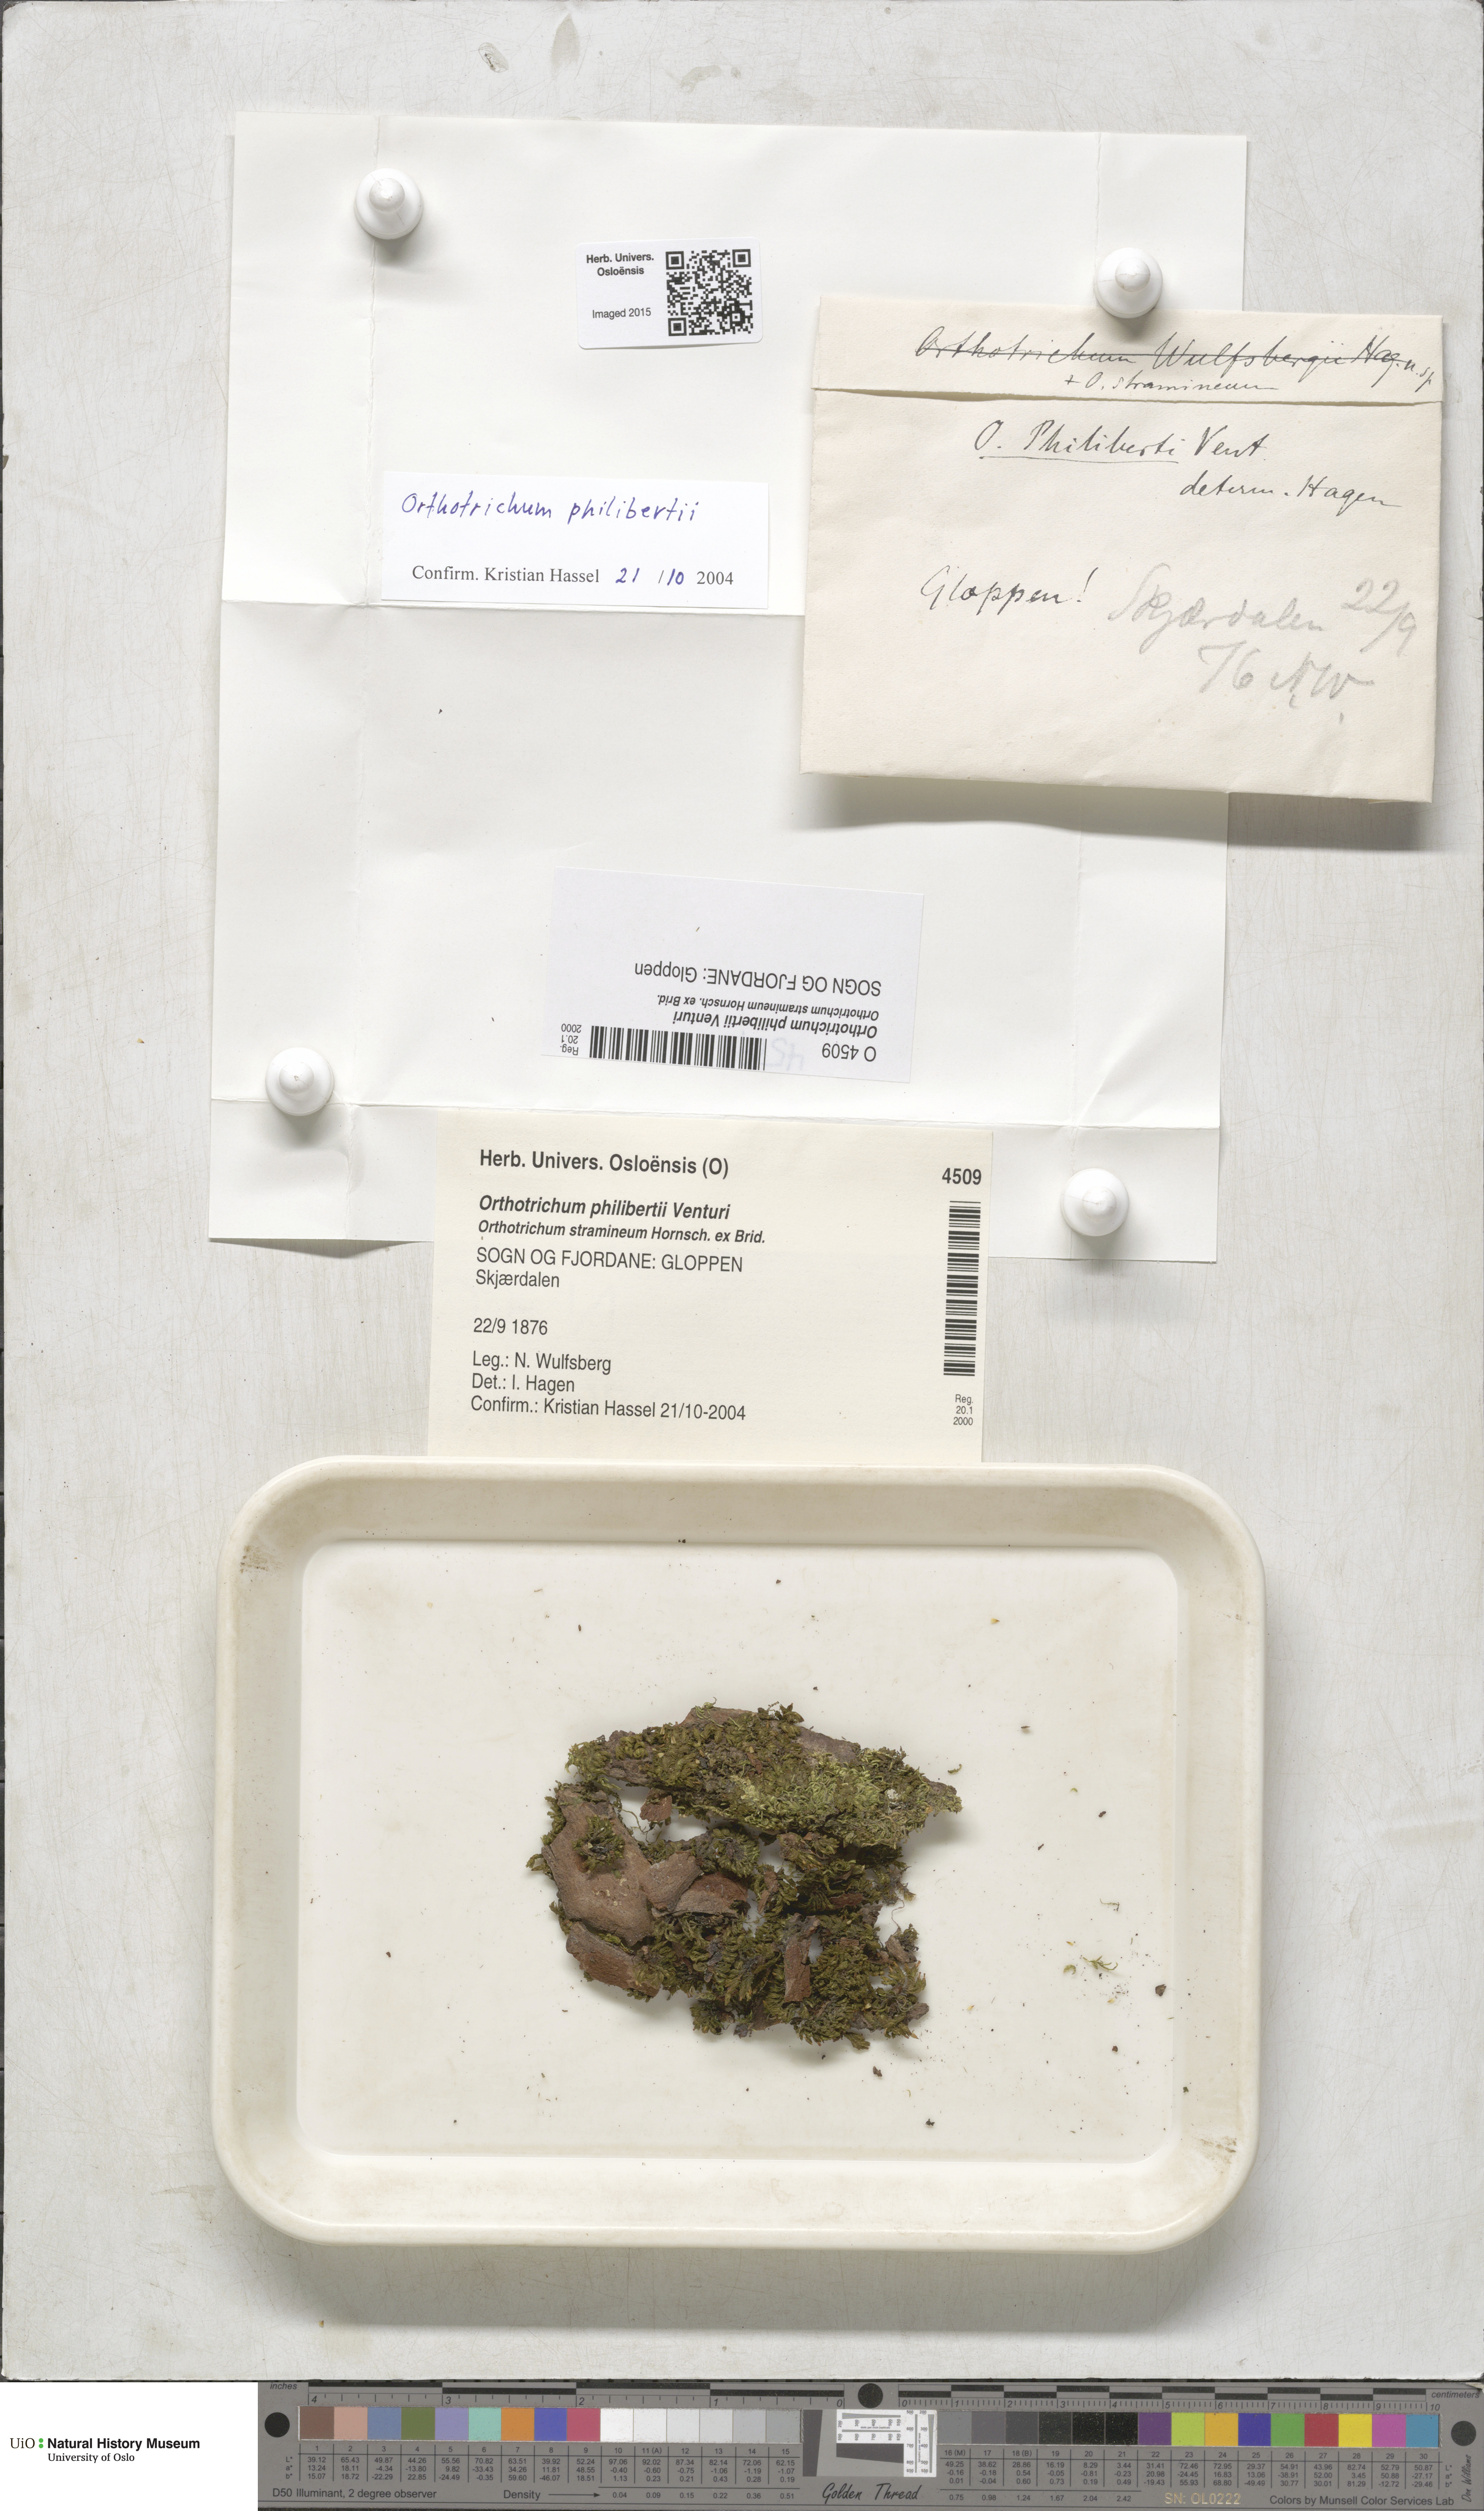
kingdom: Plantae
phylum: Bryophyta
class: Bryopsida
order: Orthotrichales
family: Orthotrichaceae
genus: Orthotrichum
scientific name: Orthotrichum philibertii
